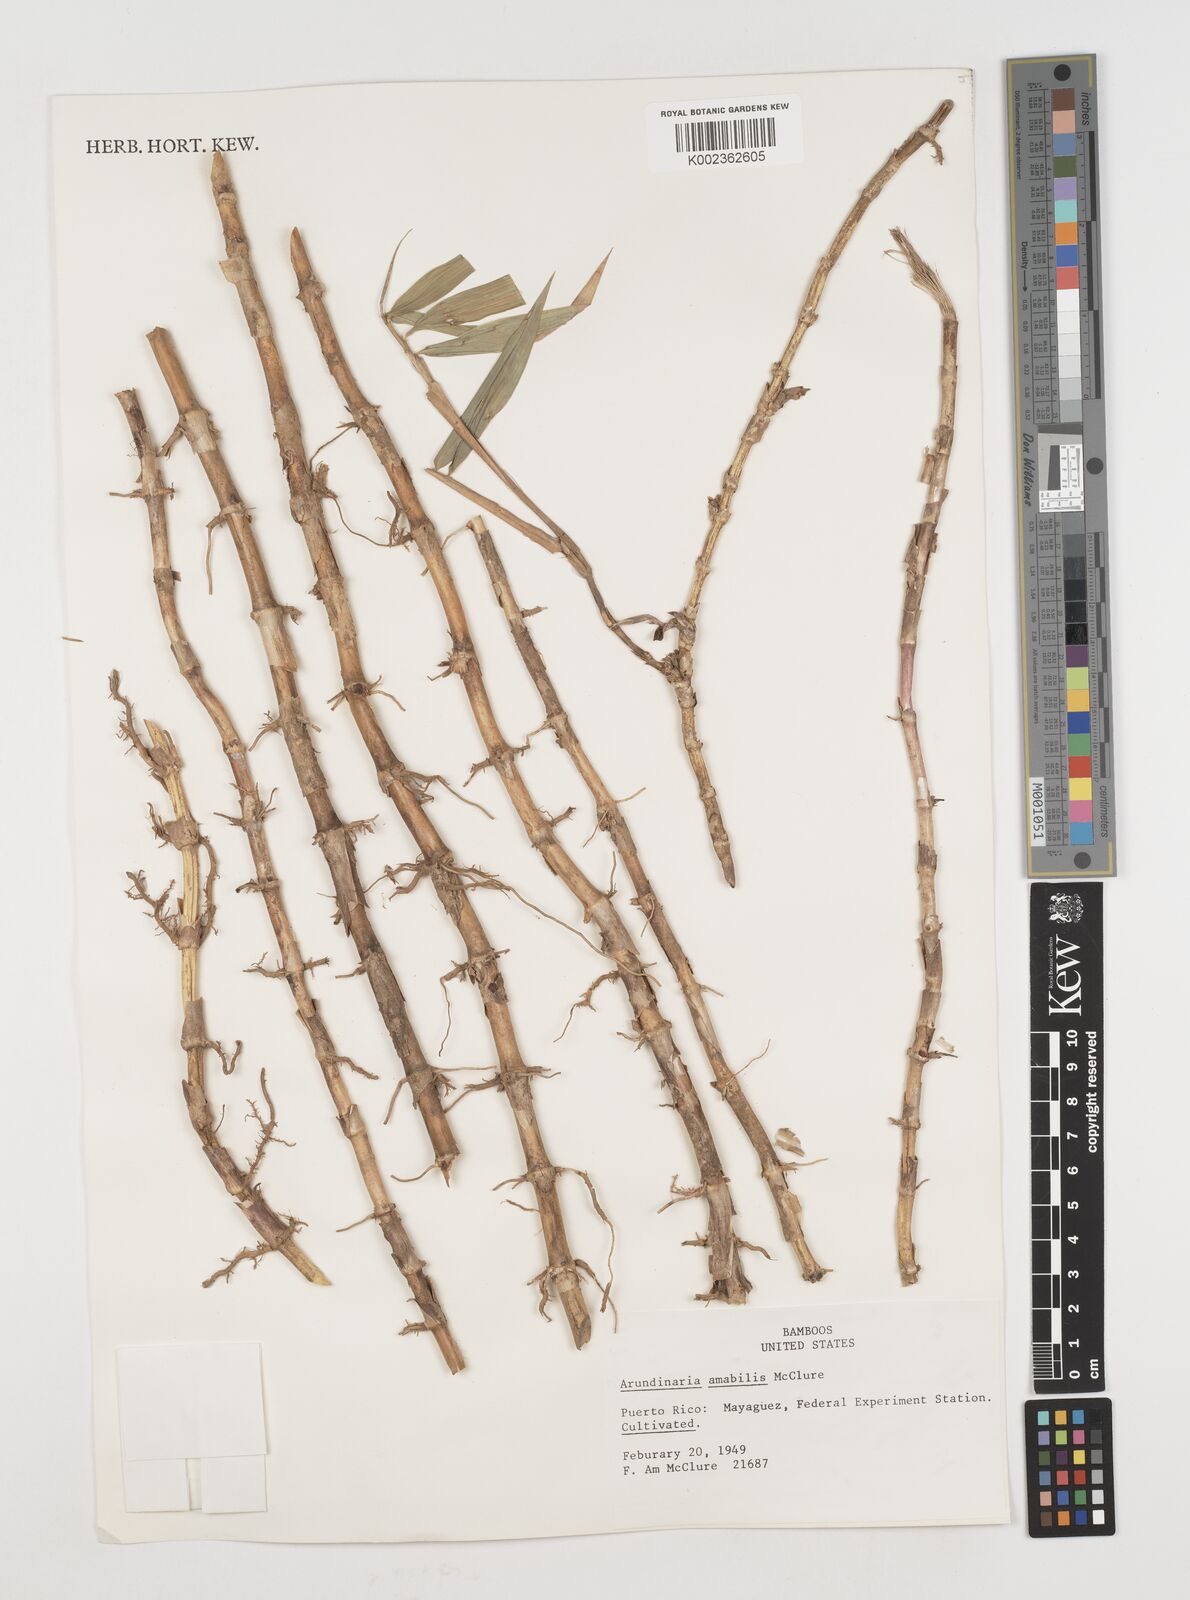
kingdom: Plantae
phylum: Tracheophyta
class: Liliopsida
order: Poales
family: Poaceae
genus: Pseudosasa
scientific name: Pseudosasa amabilis
